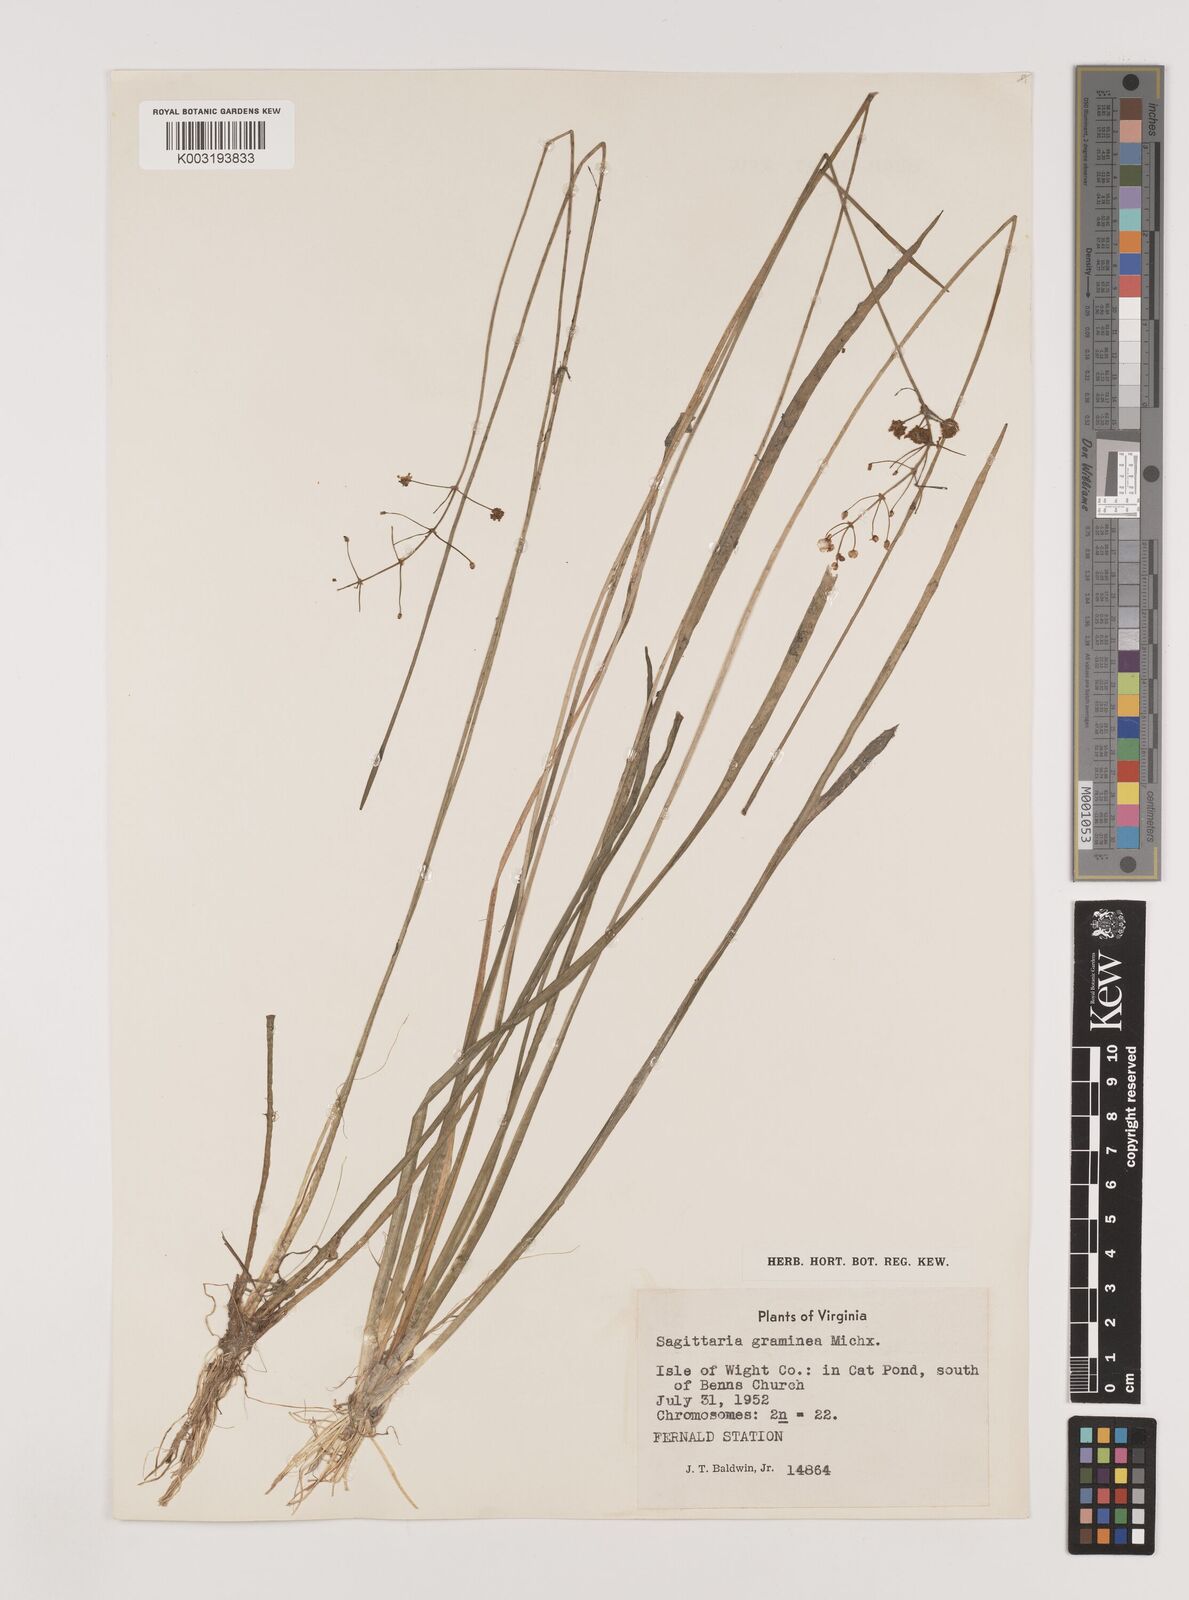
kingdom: Plantae
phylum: Tracheophyta
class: Liliopsida
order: Alismatales
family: Alismataceae
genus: Sagittaria
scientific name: Sagittaria graminea
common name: Grass-leaved arrowhead
